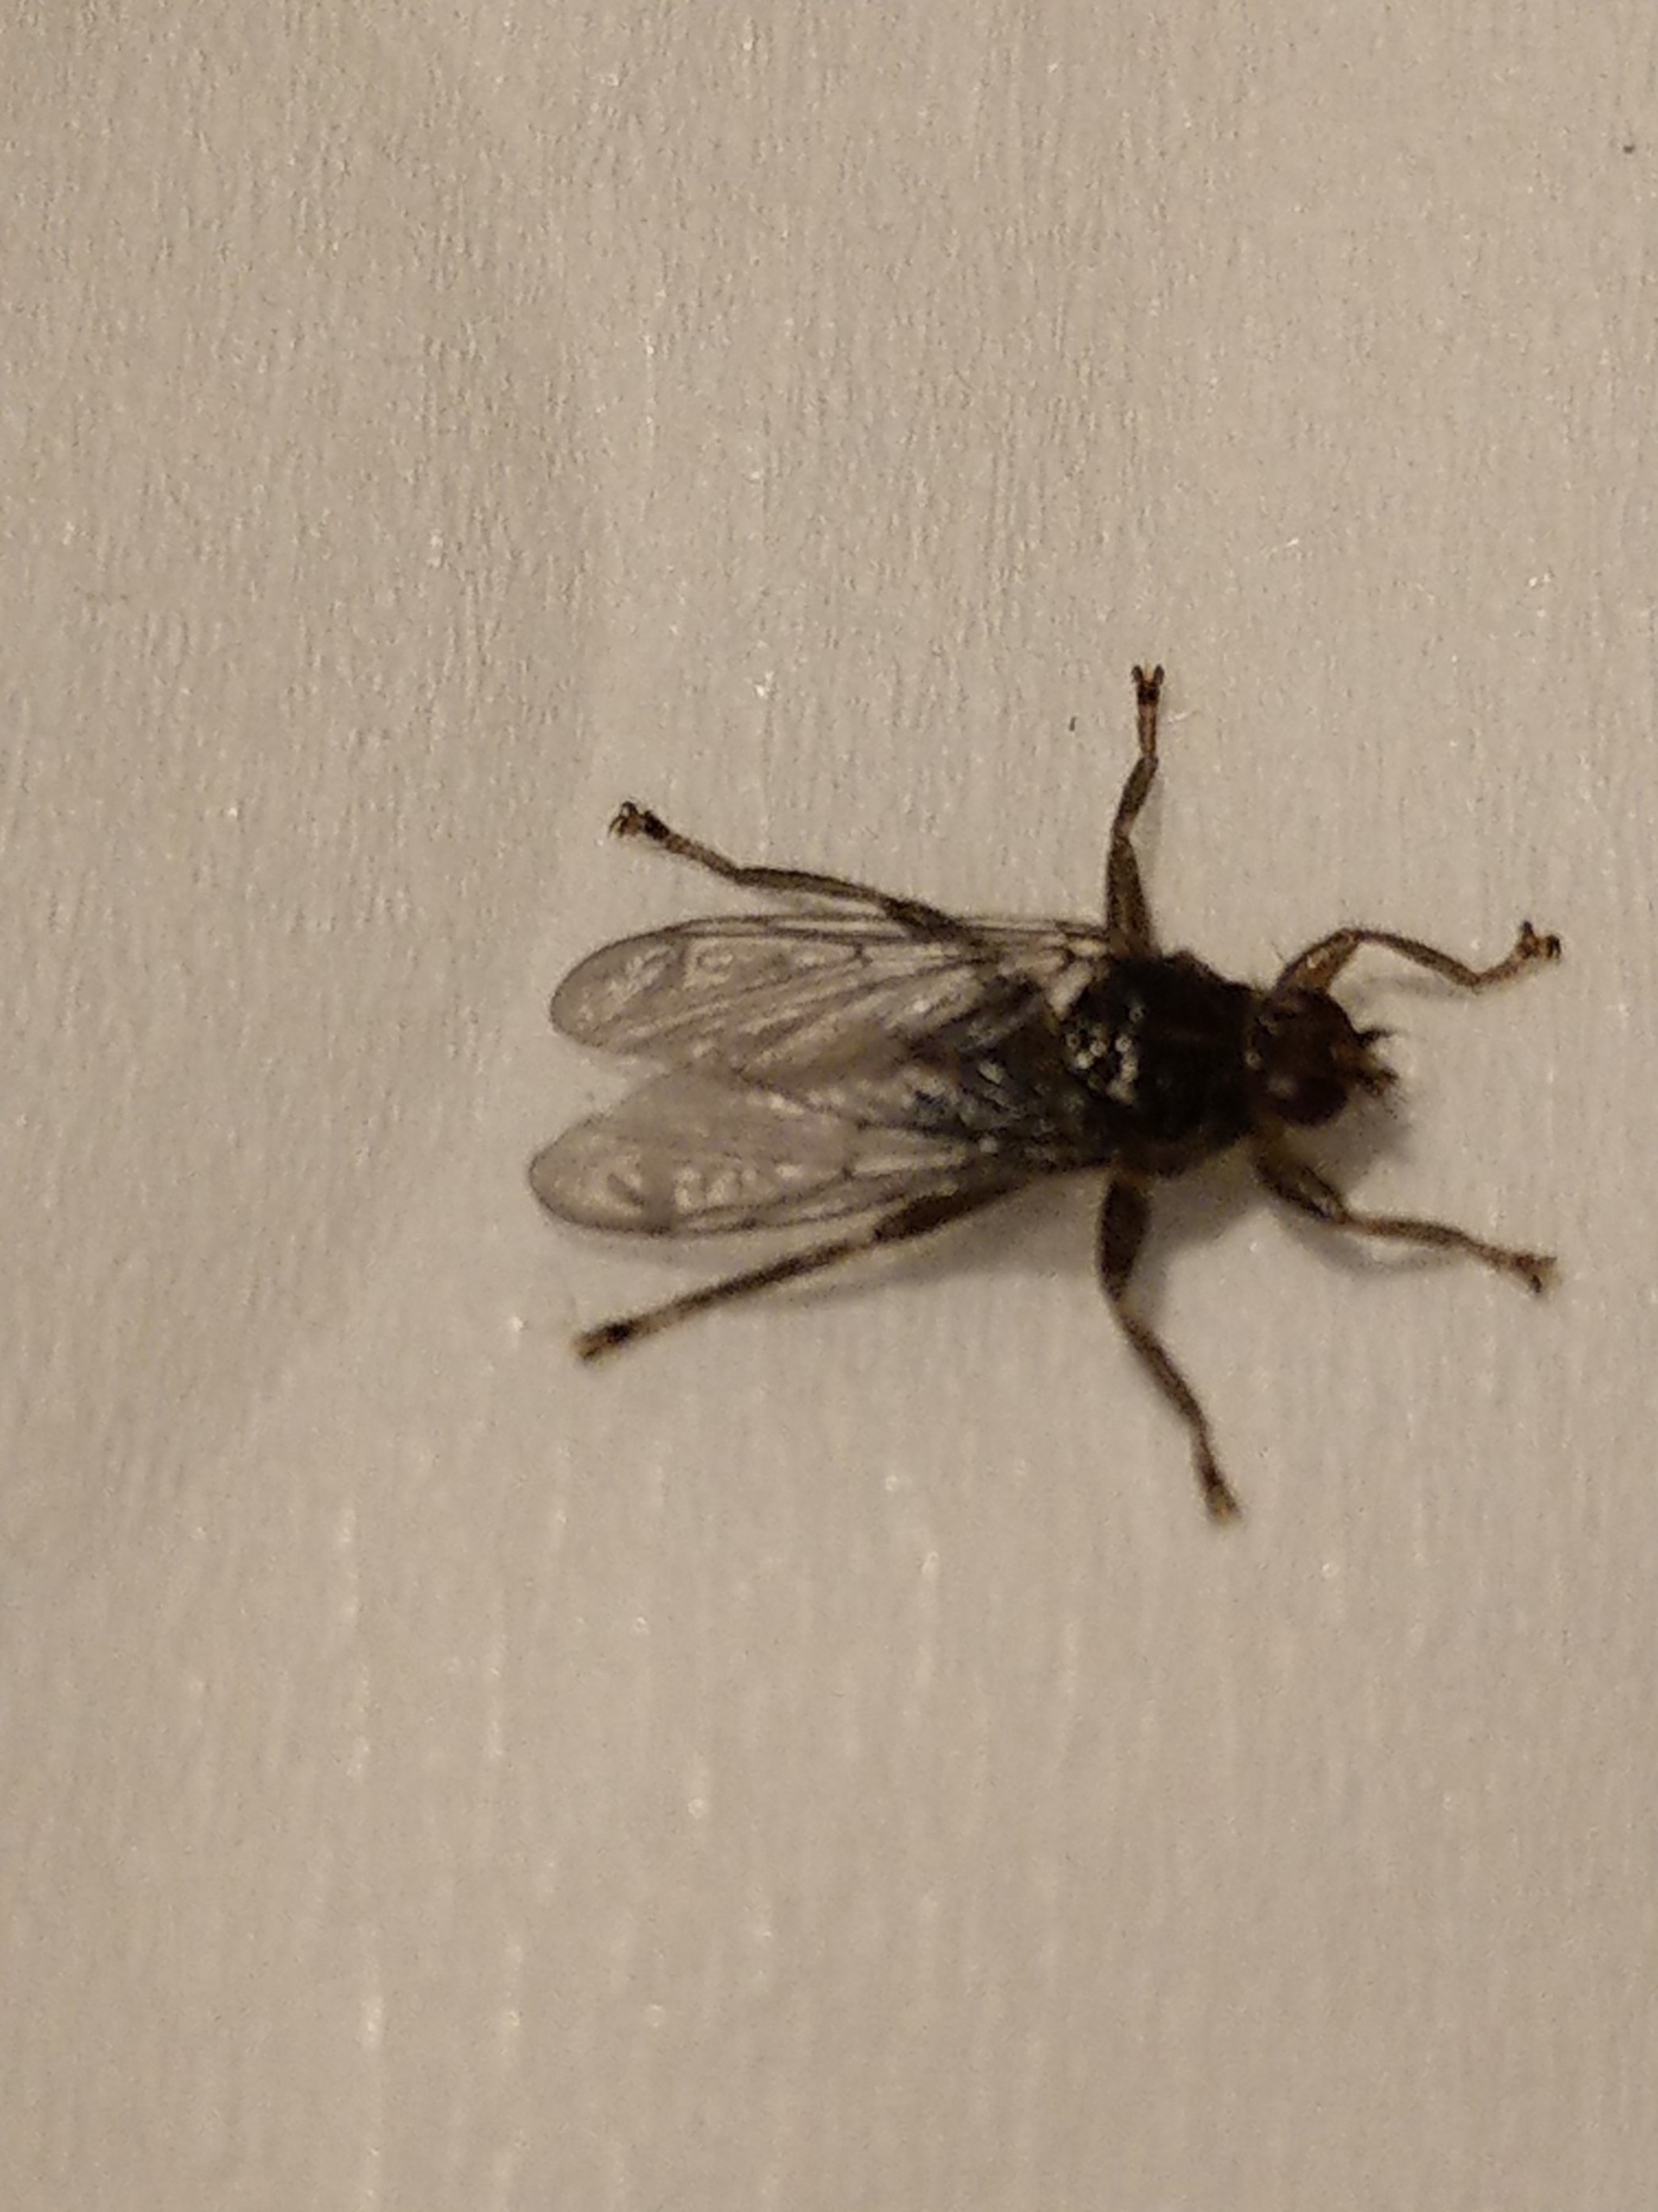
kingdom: Animalia
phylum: Arthropoda
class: Insecta
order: Diptera
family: Hippoboscidae
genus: Ornithomya
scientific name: Ornithomya avicularia
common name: Almindelig fuglelusflue
